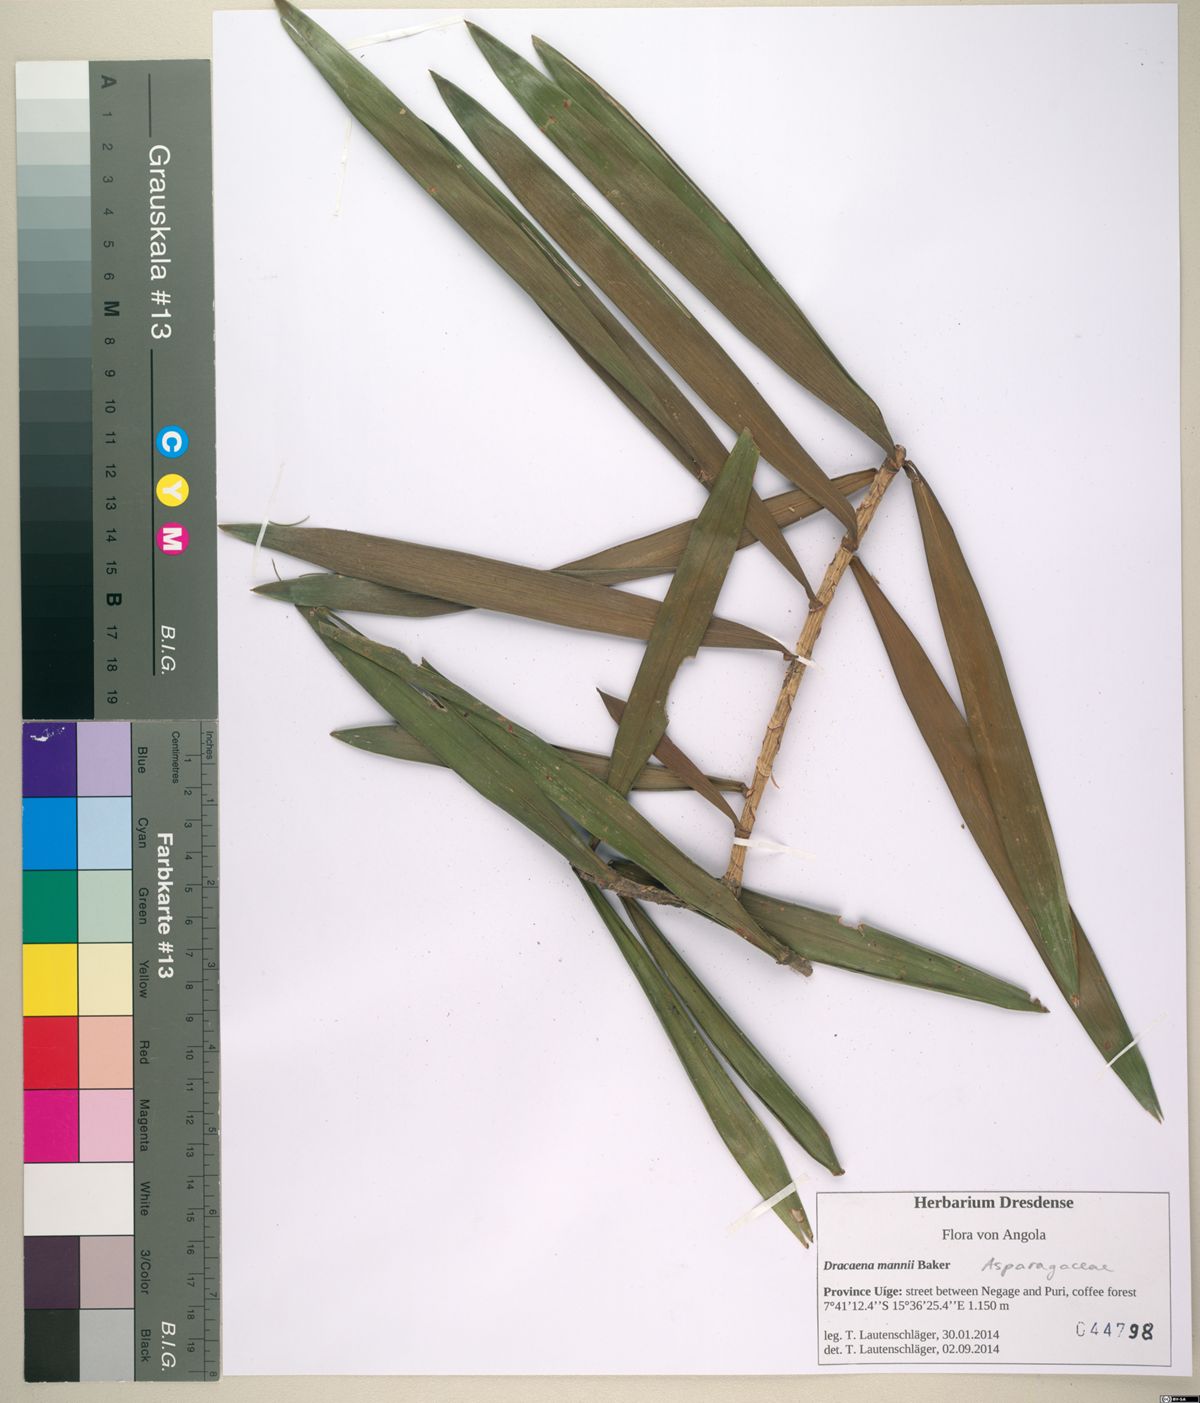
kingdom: Plantae
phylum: Tracheophyta
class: Liliopsida
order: Asparagales
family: Asparagaceae
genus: Dracaena
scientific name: Dracaena mannii
